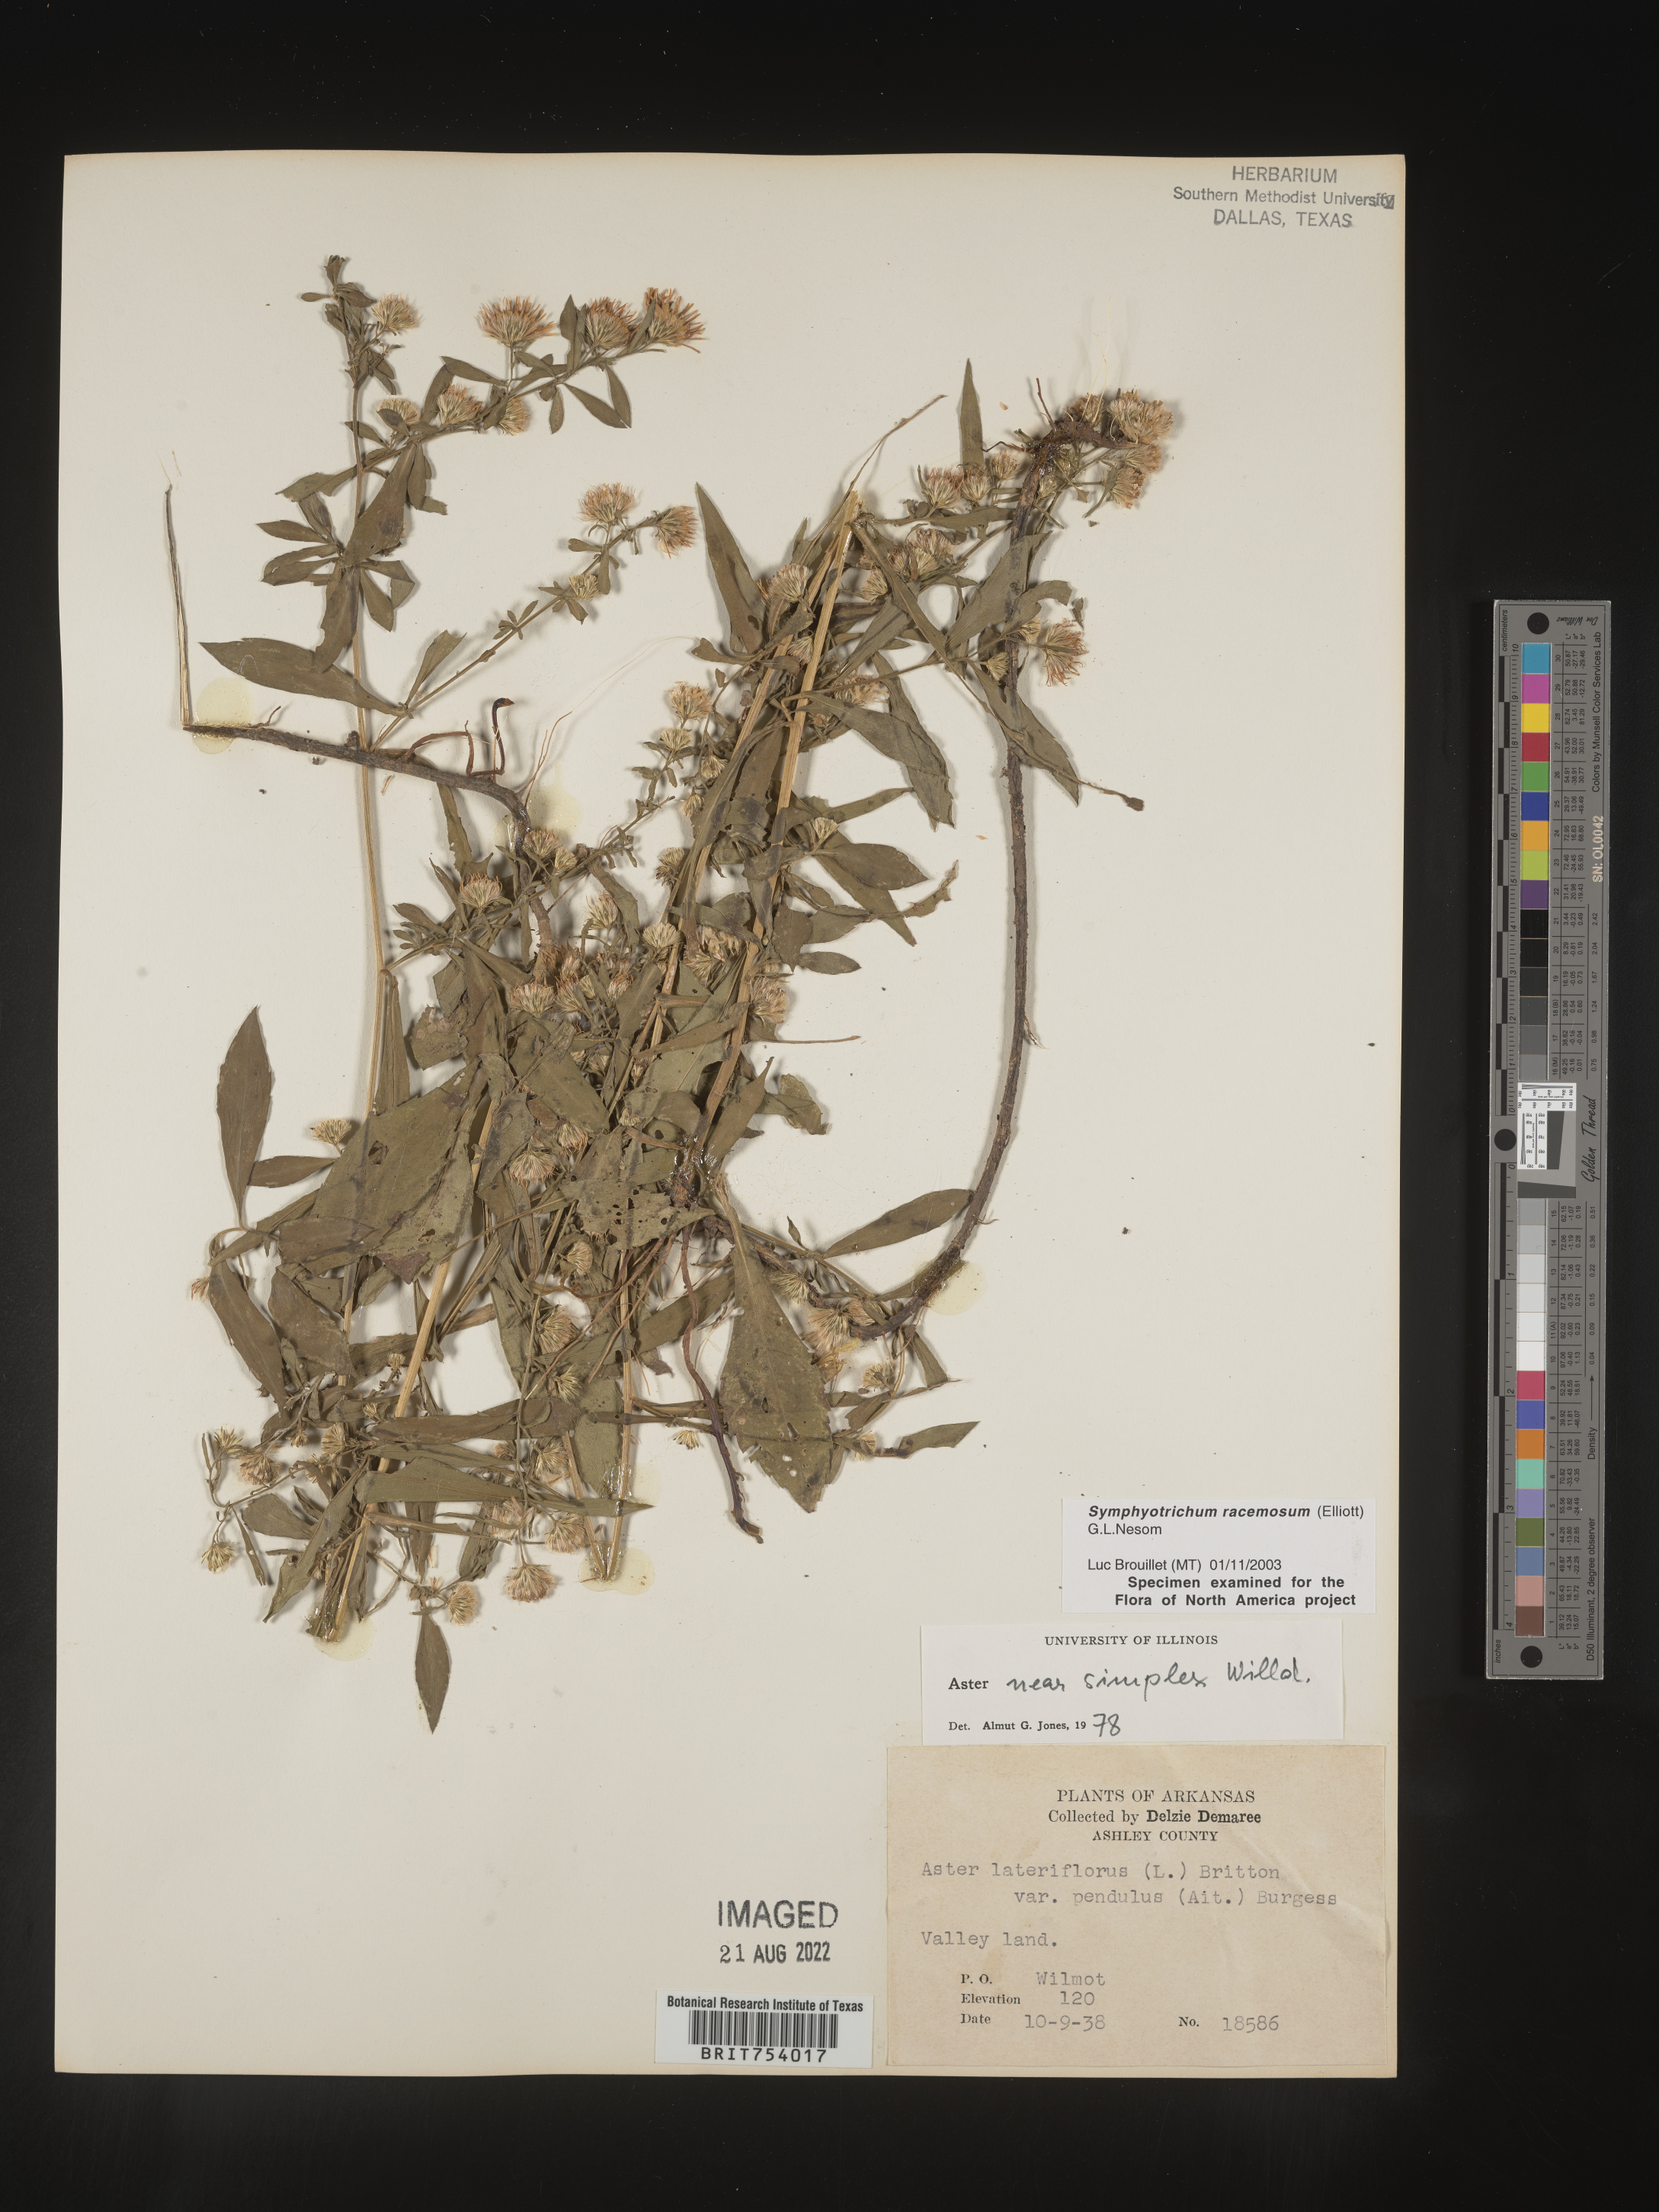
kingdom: Plantae
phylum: Tracheophyta
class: Magnoliopsida
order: Asterales
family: Asteraceae
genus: Symphyotrichum
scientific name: Symphyotrichum racemosum
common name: Small white aster
